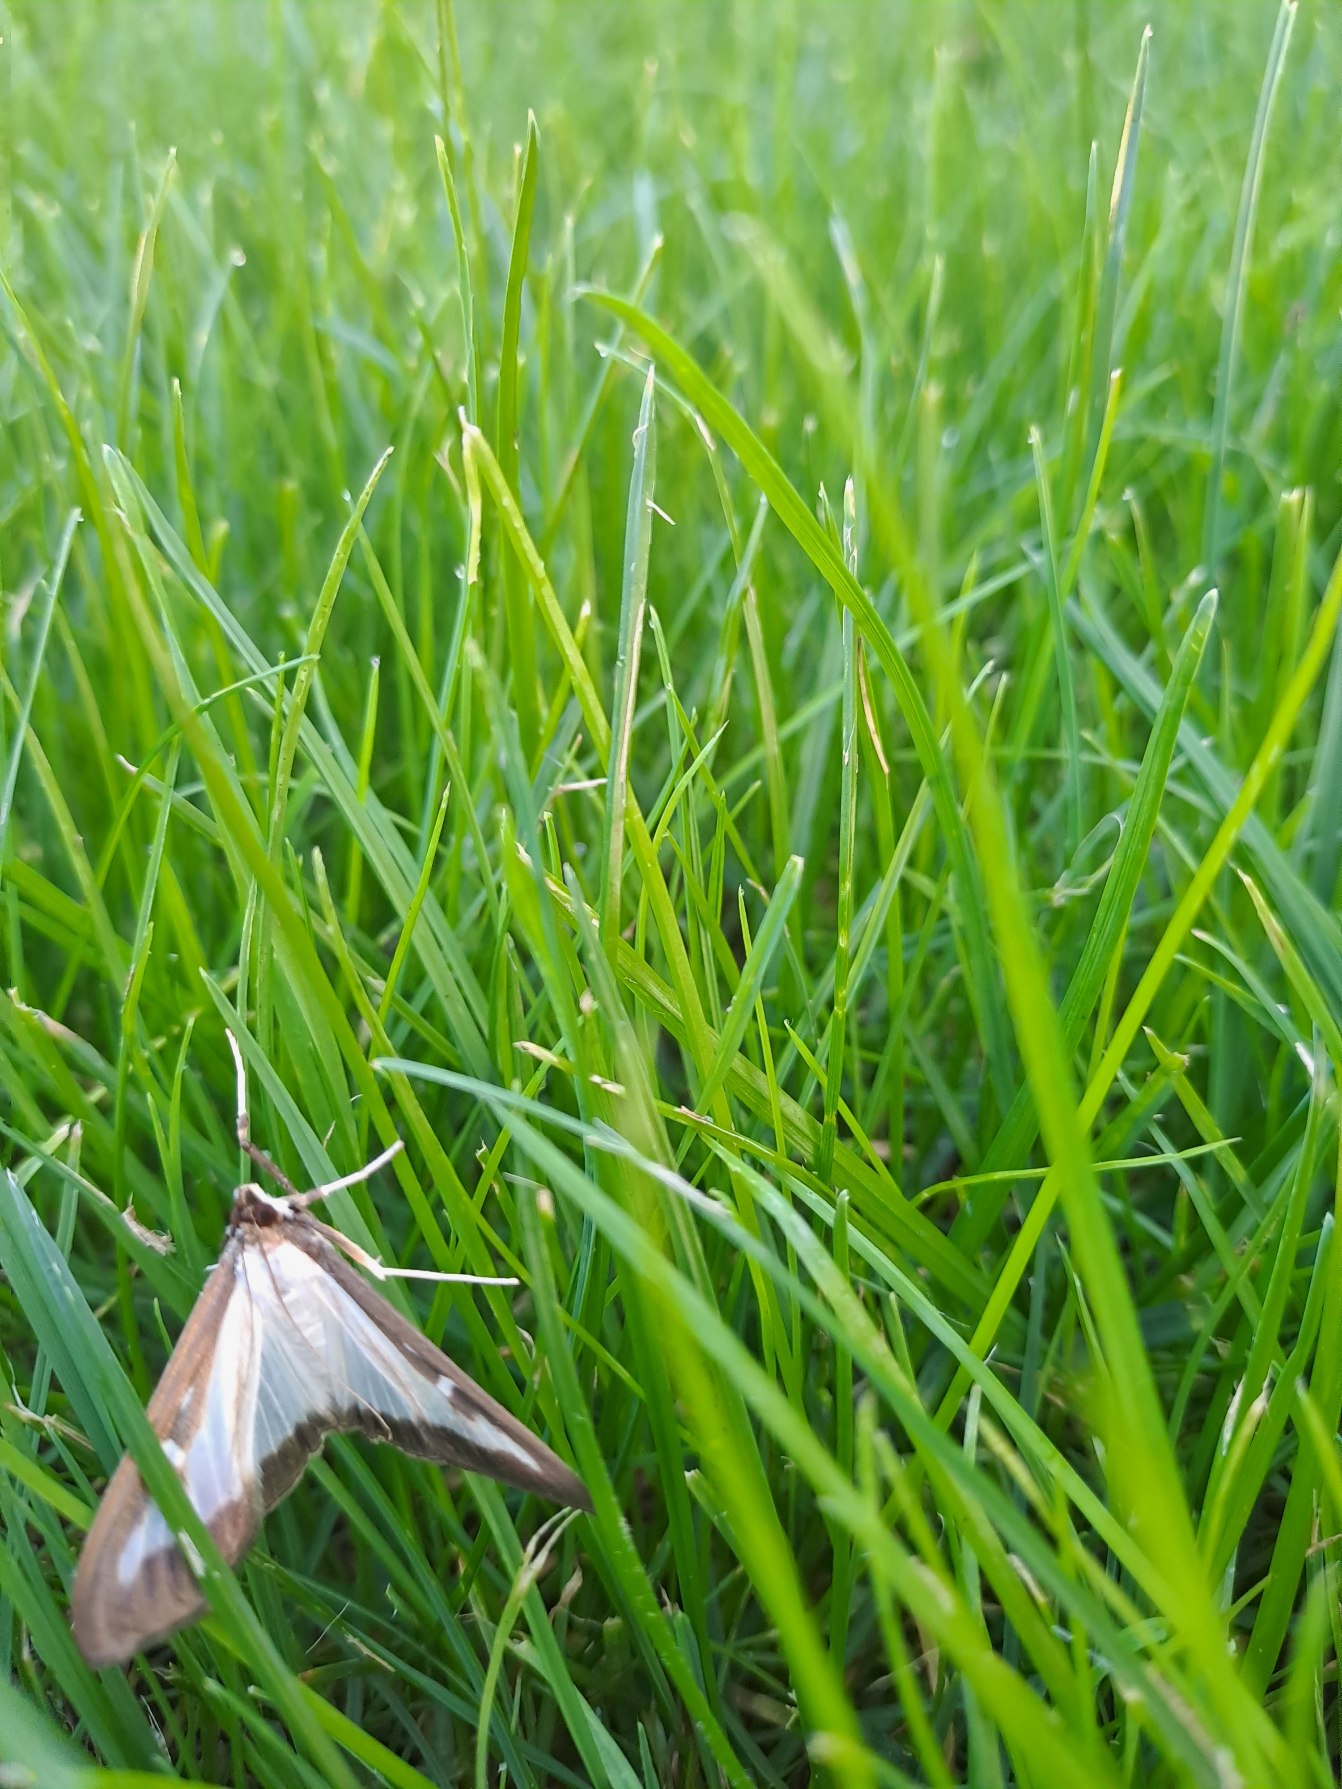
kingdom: Animalia
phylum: Arthropoda
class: Insecta
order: Lepidoptera
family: Crambidae
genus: Cydalima
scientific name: Cydalima perspectalis
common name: Buksbomhalvmøl
